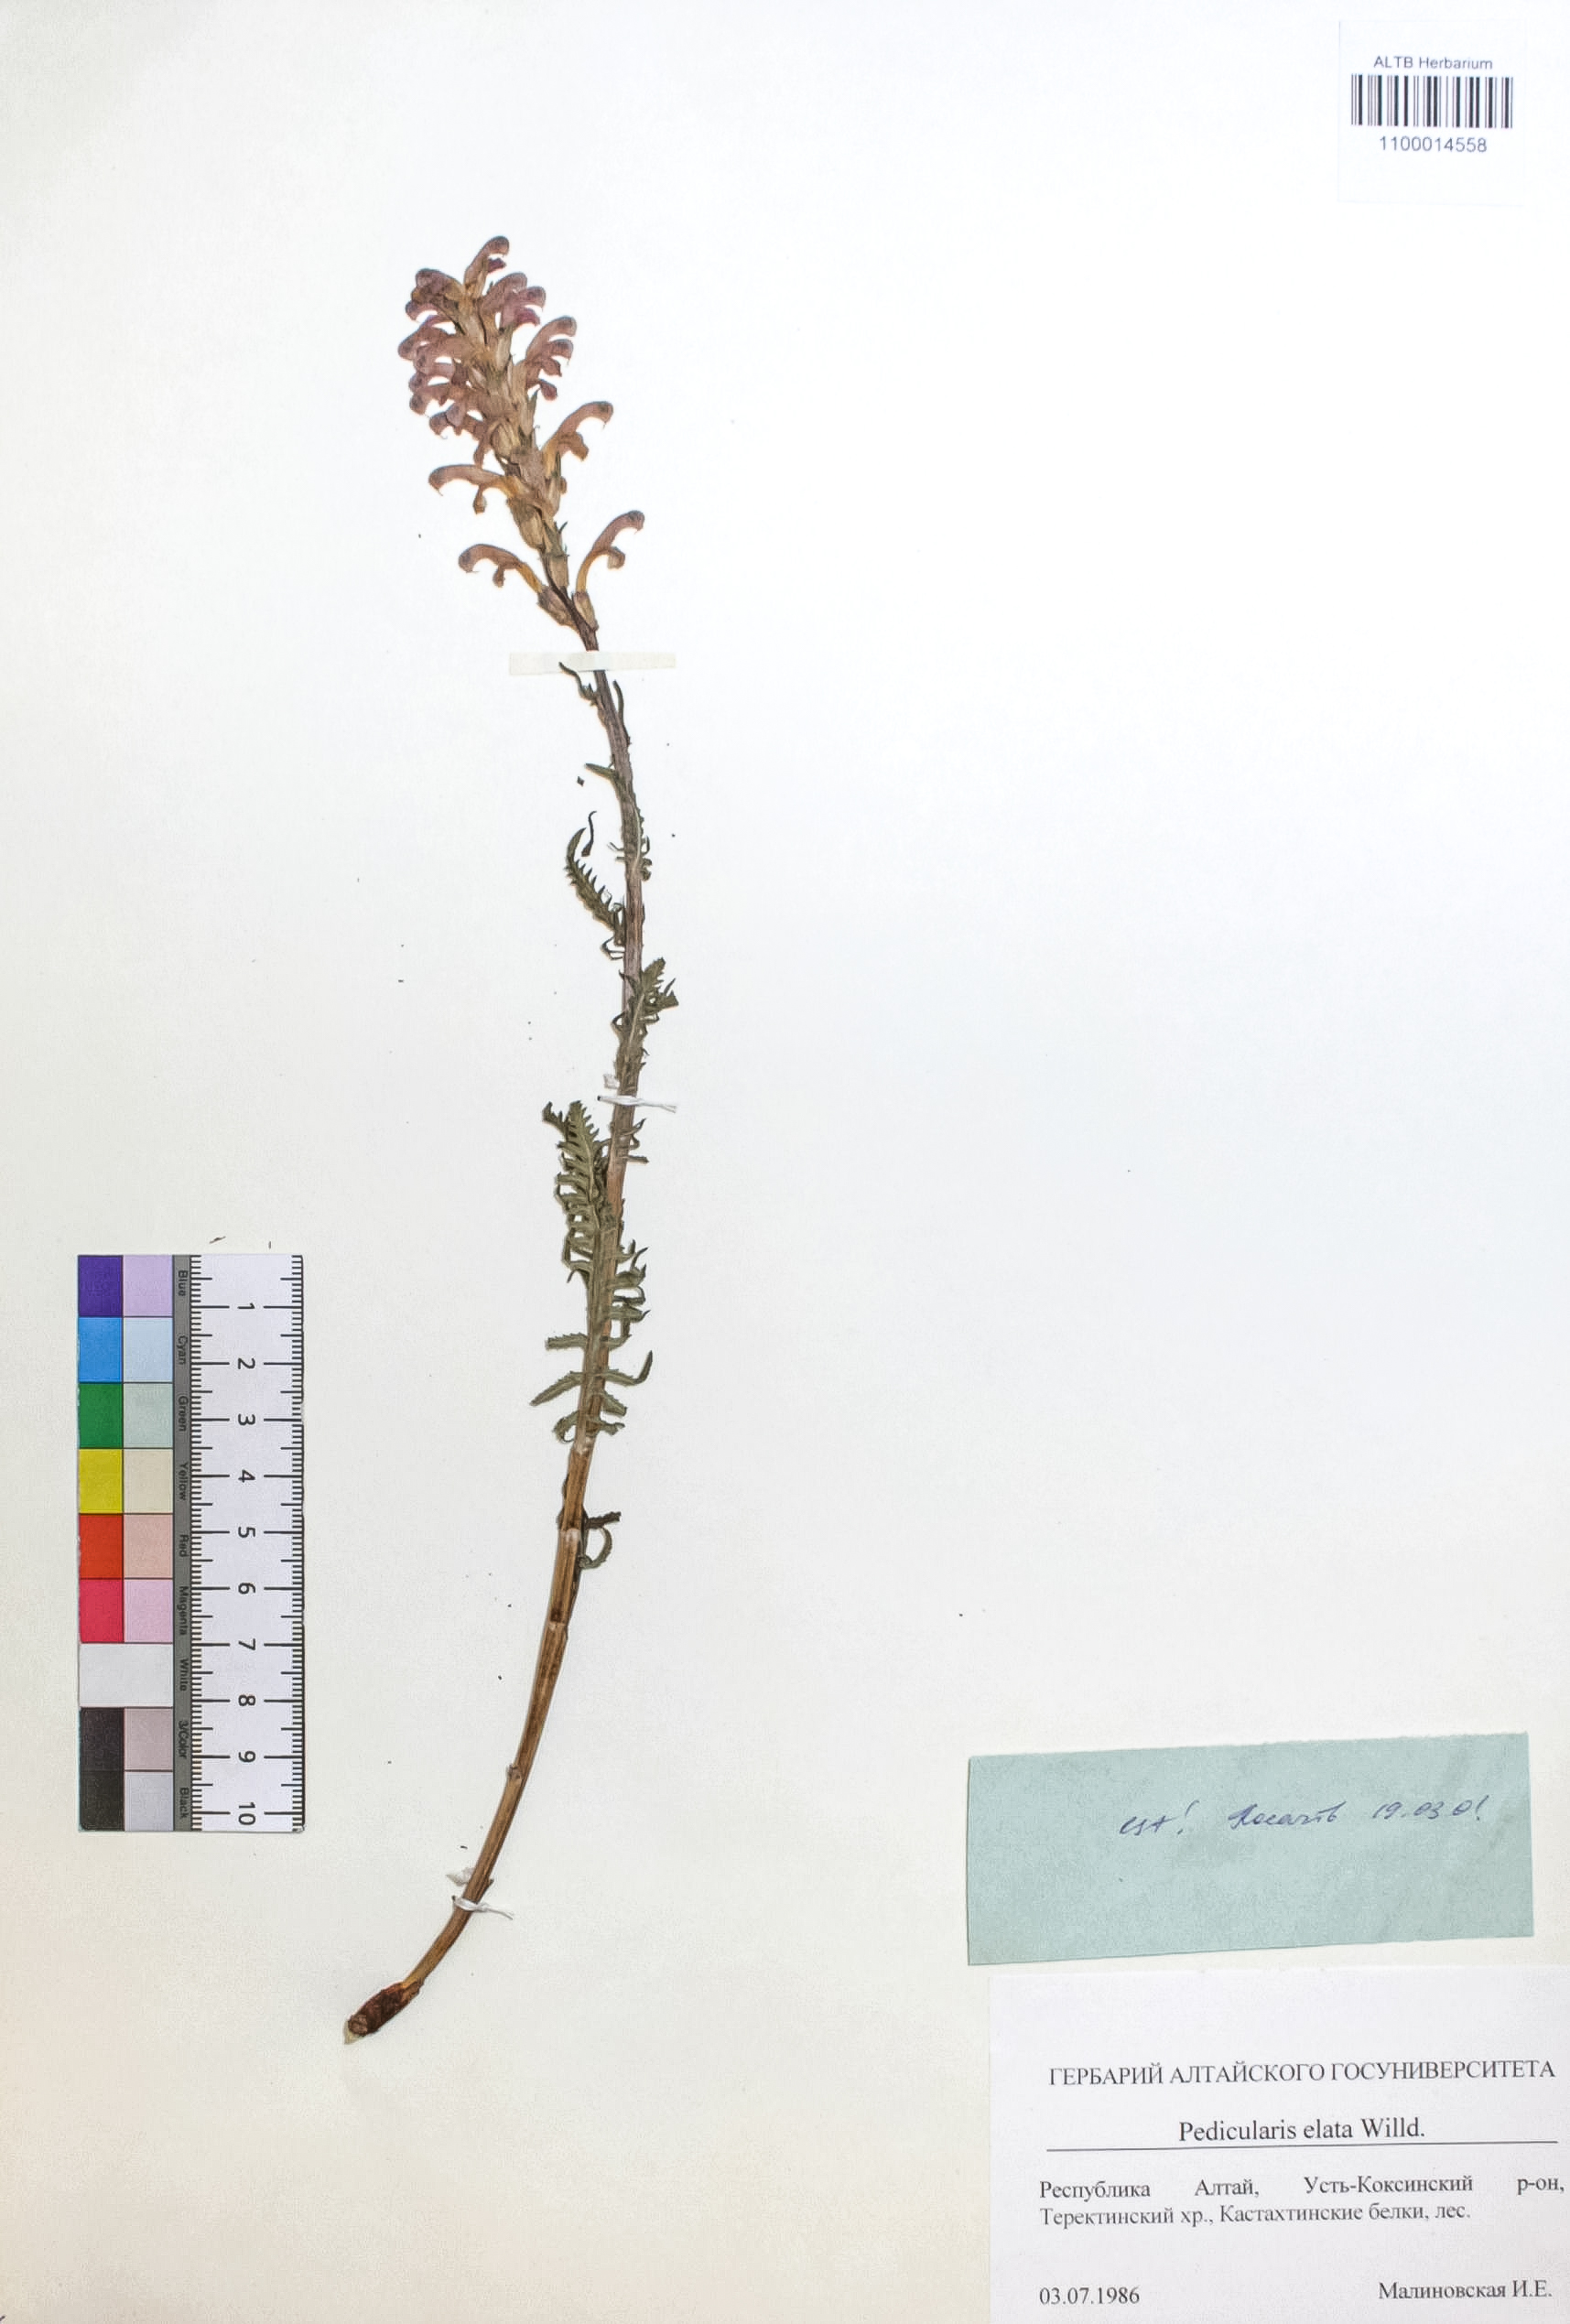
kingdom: Plantae
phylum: Tracheophyta
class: Magnoliopsida
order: Lamiales
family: Orobanchaceae
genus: Pedicularis
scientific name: Pedicularis elata
